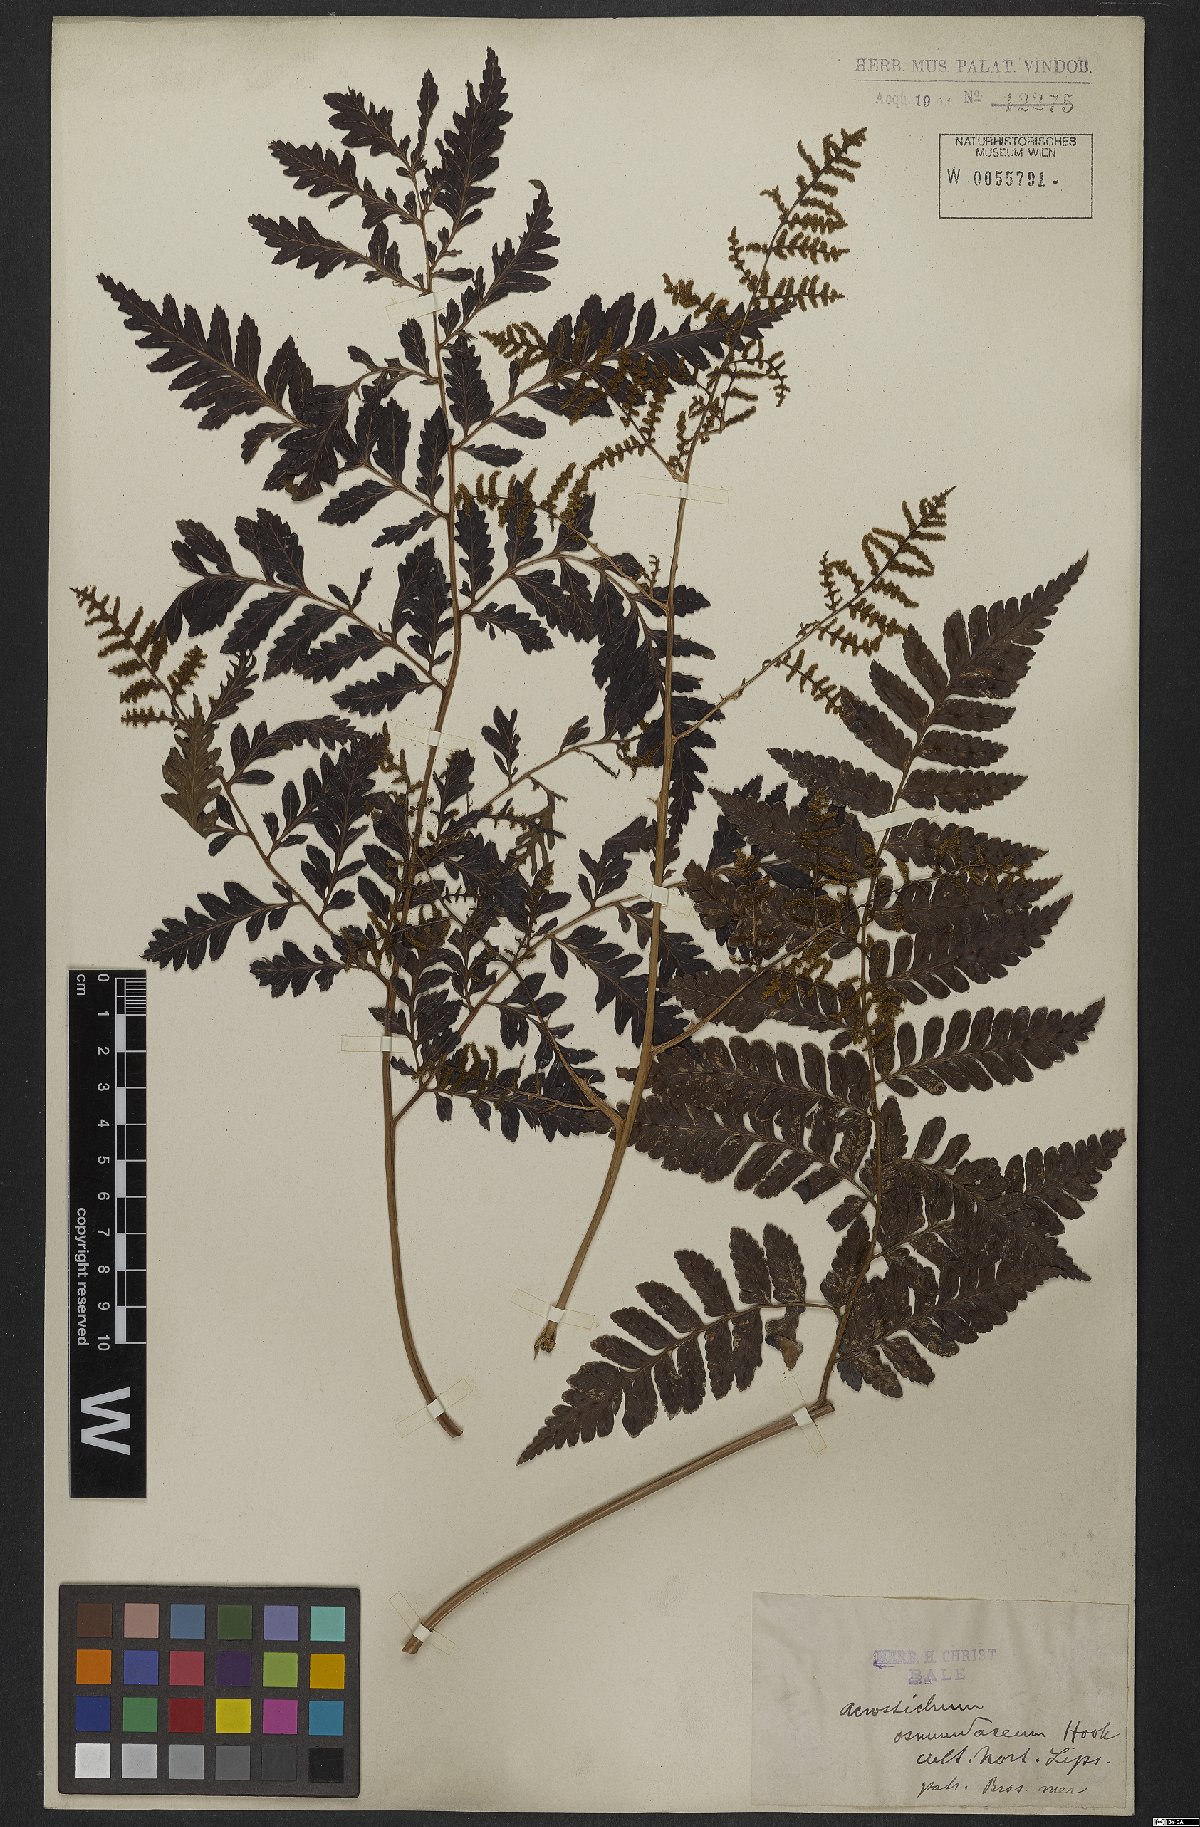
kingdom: Plantae
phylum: Tracheophyta
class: Polypodiopsida
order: Polypodiales
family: Dryopteridaceae
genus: Polybotrya
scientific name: Polybotrya osmundacea
